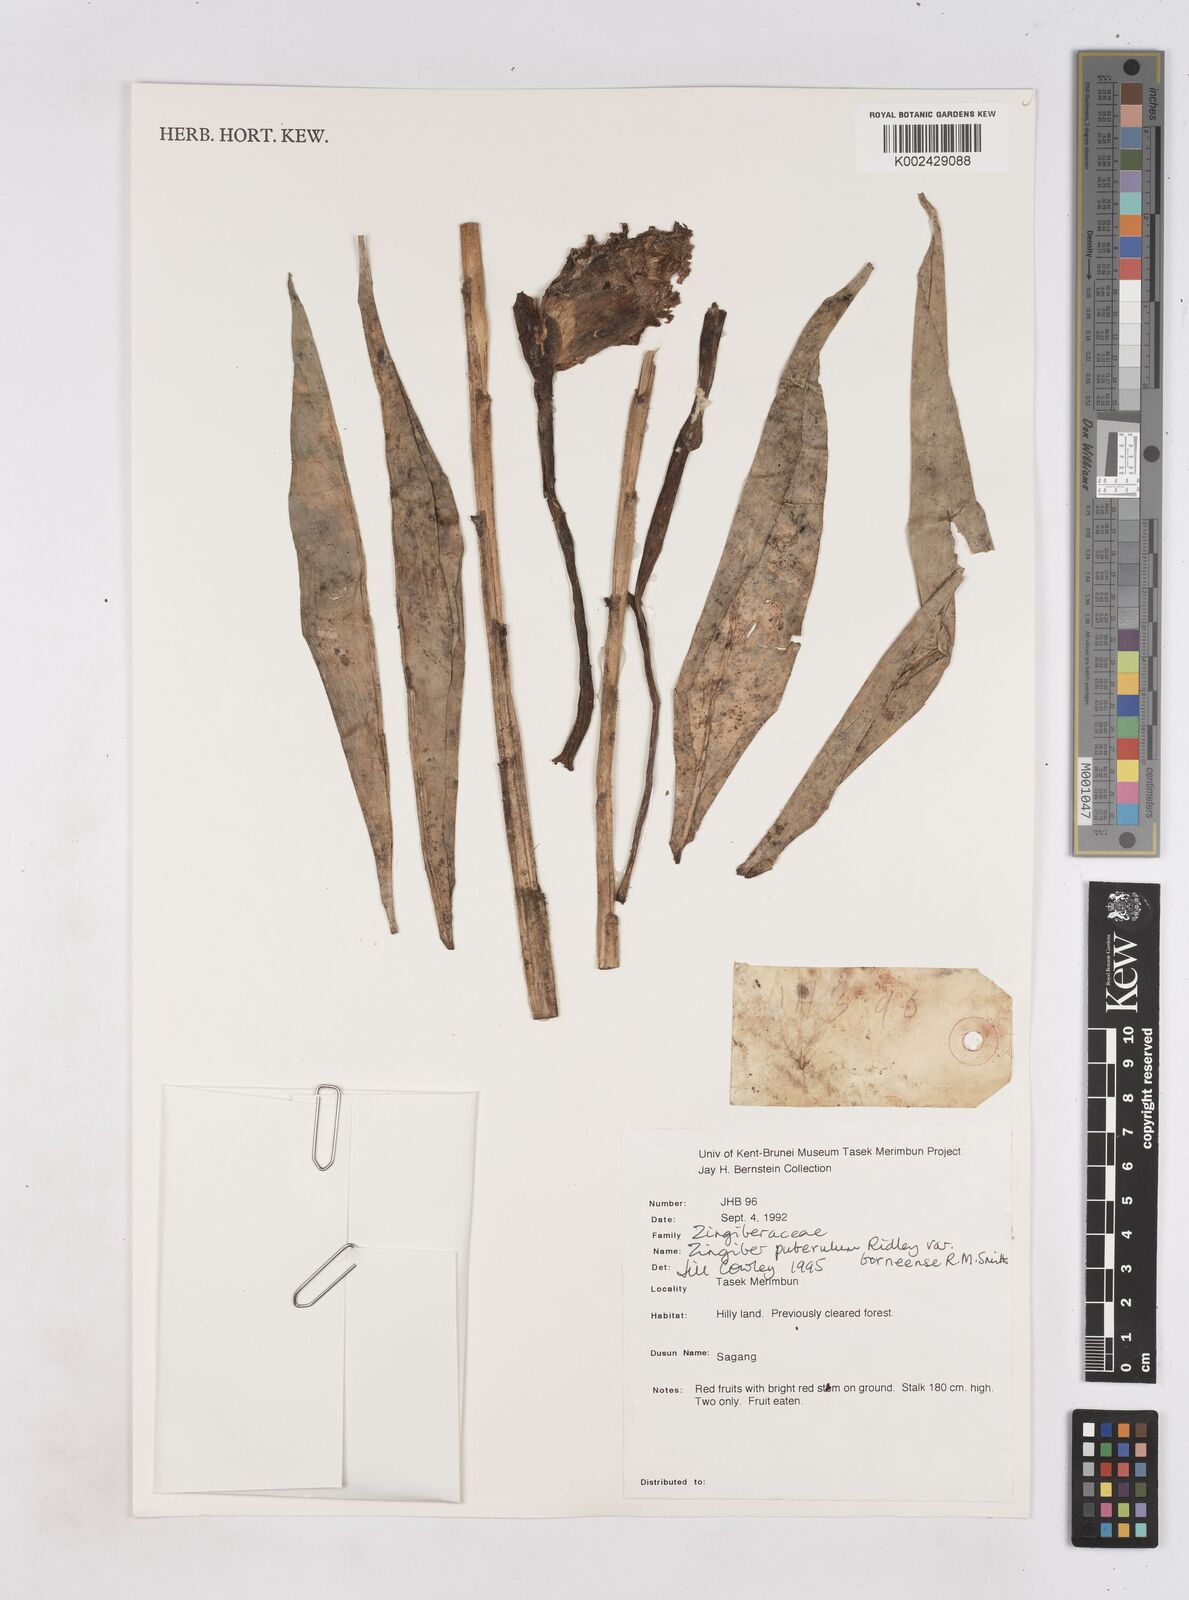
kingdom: Plantae
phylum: Tracheophyta
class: Liliopsida
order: Zingiberales
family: Zingiberaceae
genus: Zingiber
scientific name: Zingiber puberulum
